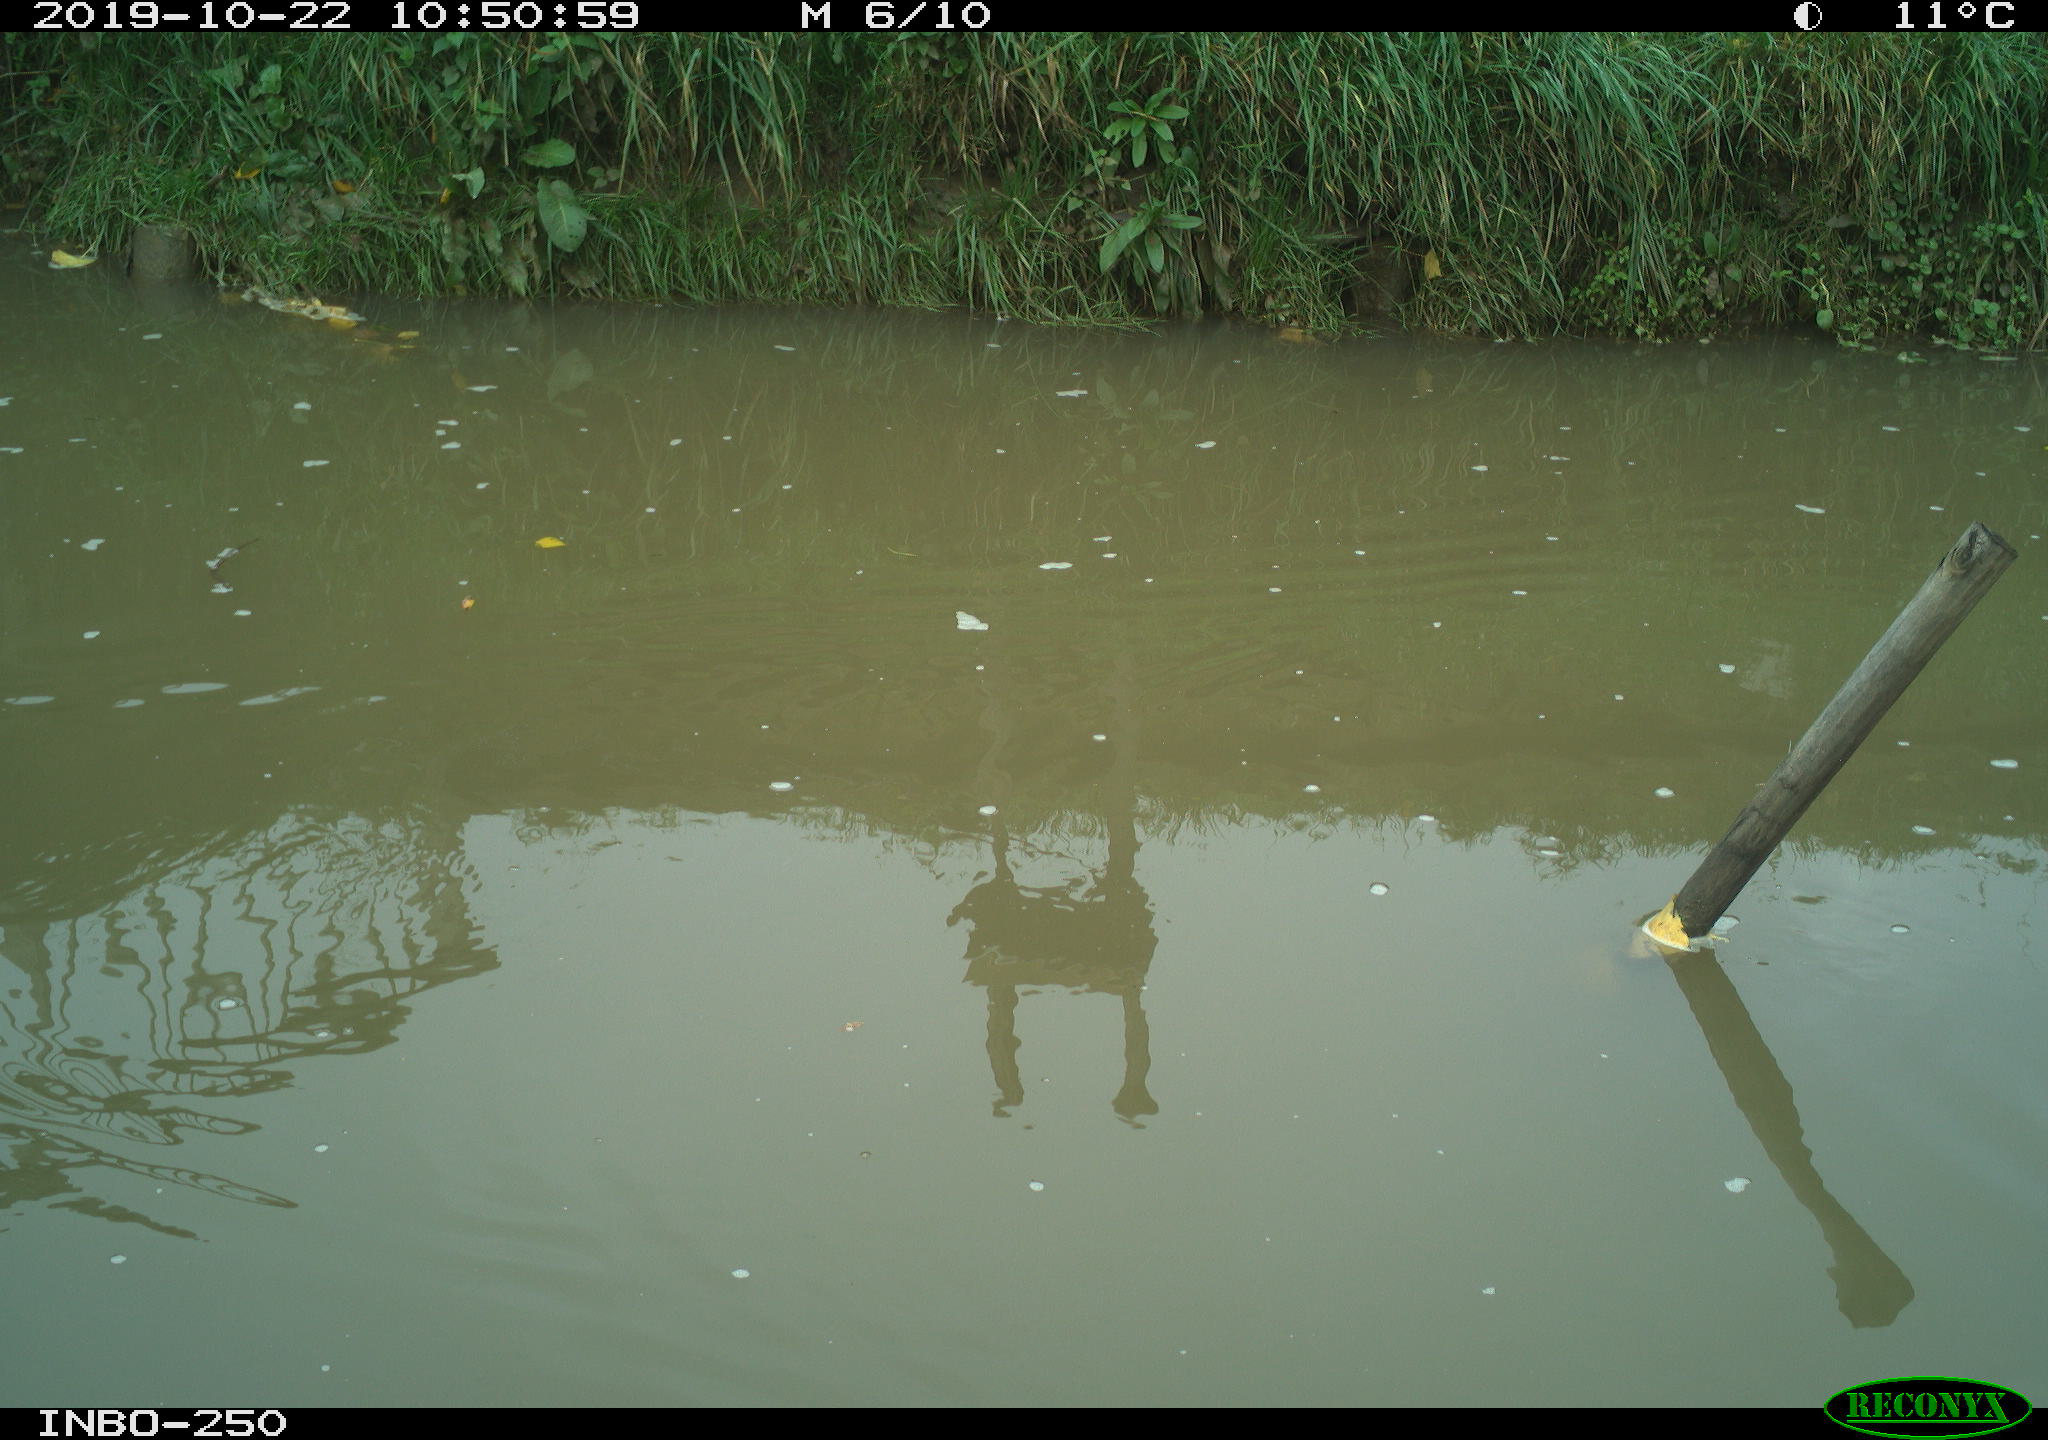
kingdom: Animalia
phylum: Chordata
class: Aves
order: Gruiformes
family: Rallidae
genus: Gallinula
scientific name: Gallinula chloropus
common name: Common moorhen
